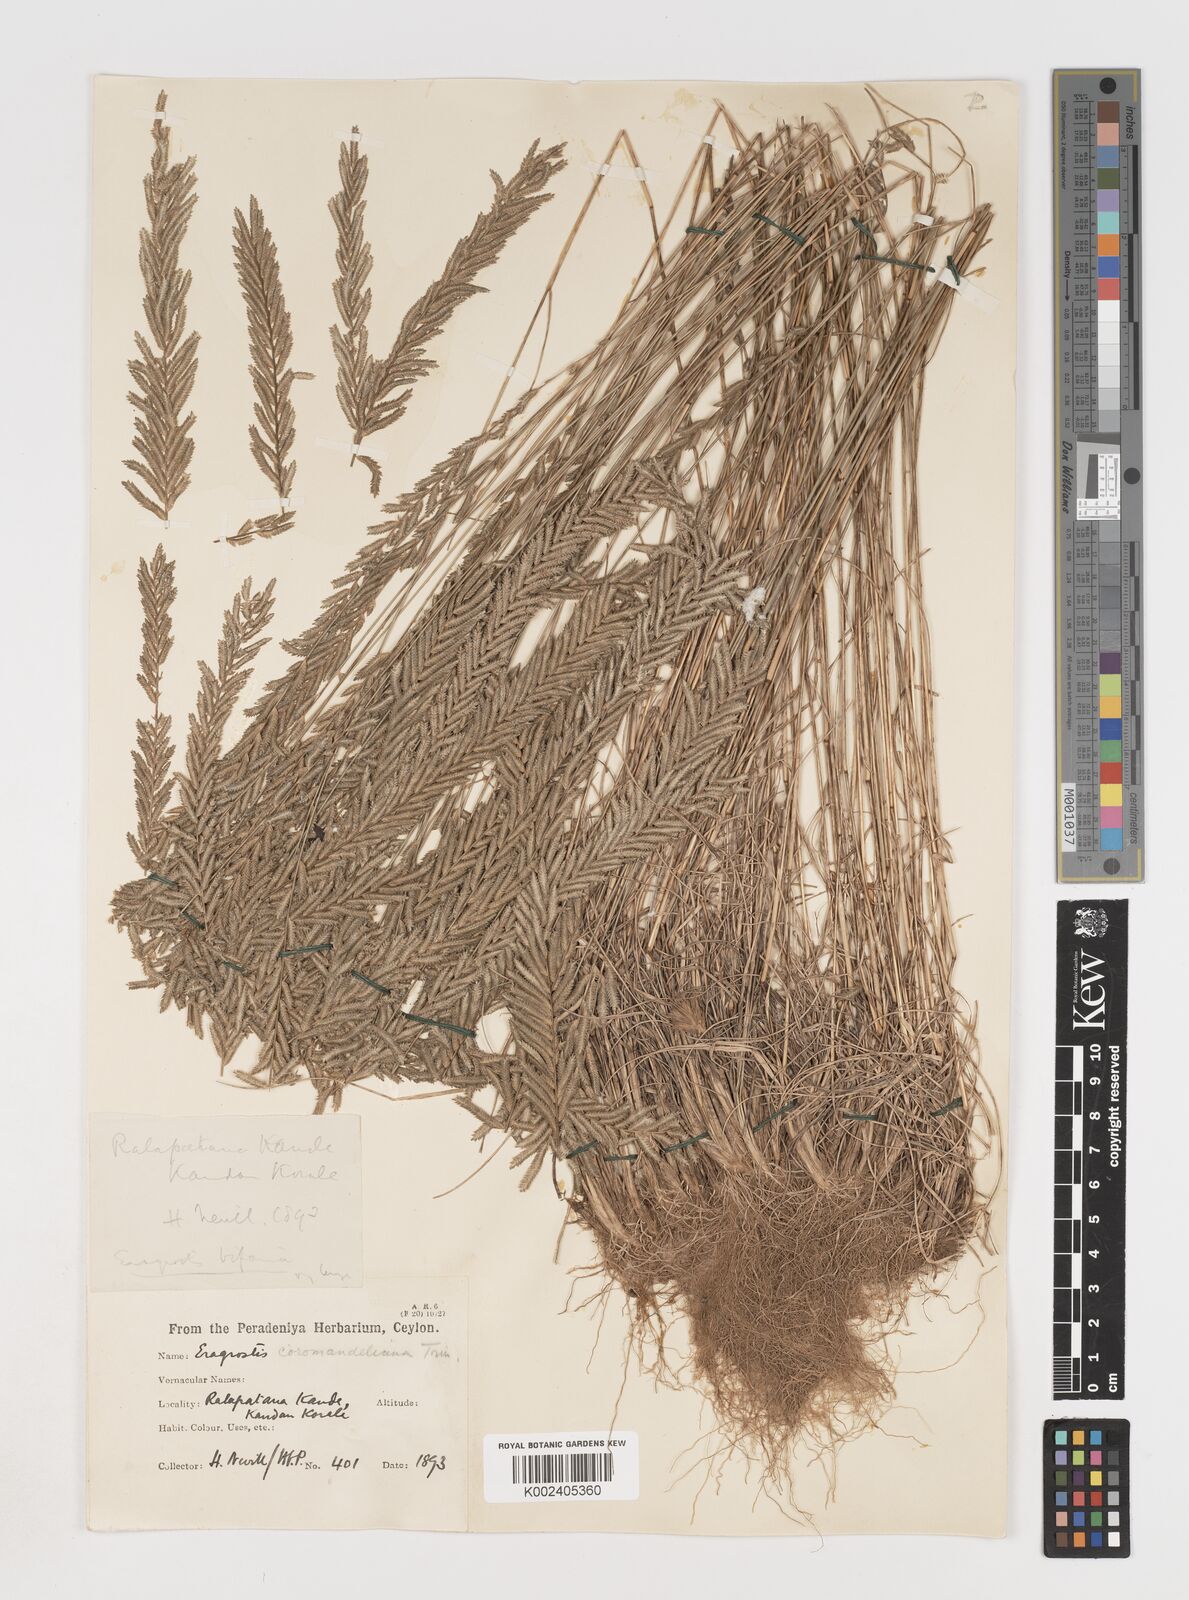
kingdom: Plantae
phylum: Tracheophyta
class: Liliopsida
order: Poales
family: Poaceae
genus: Eragrostiella
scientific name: Eragrostiella bifaria
